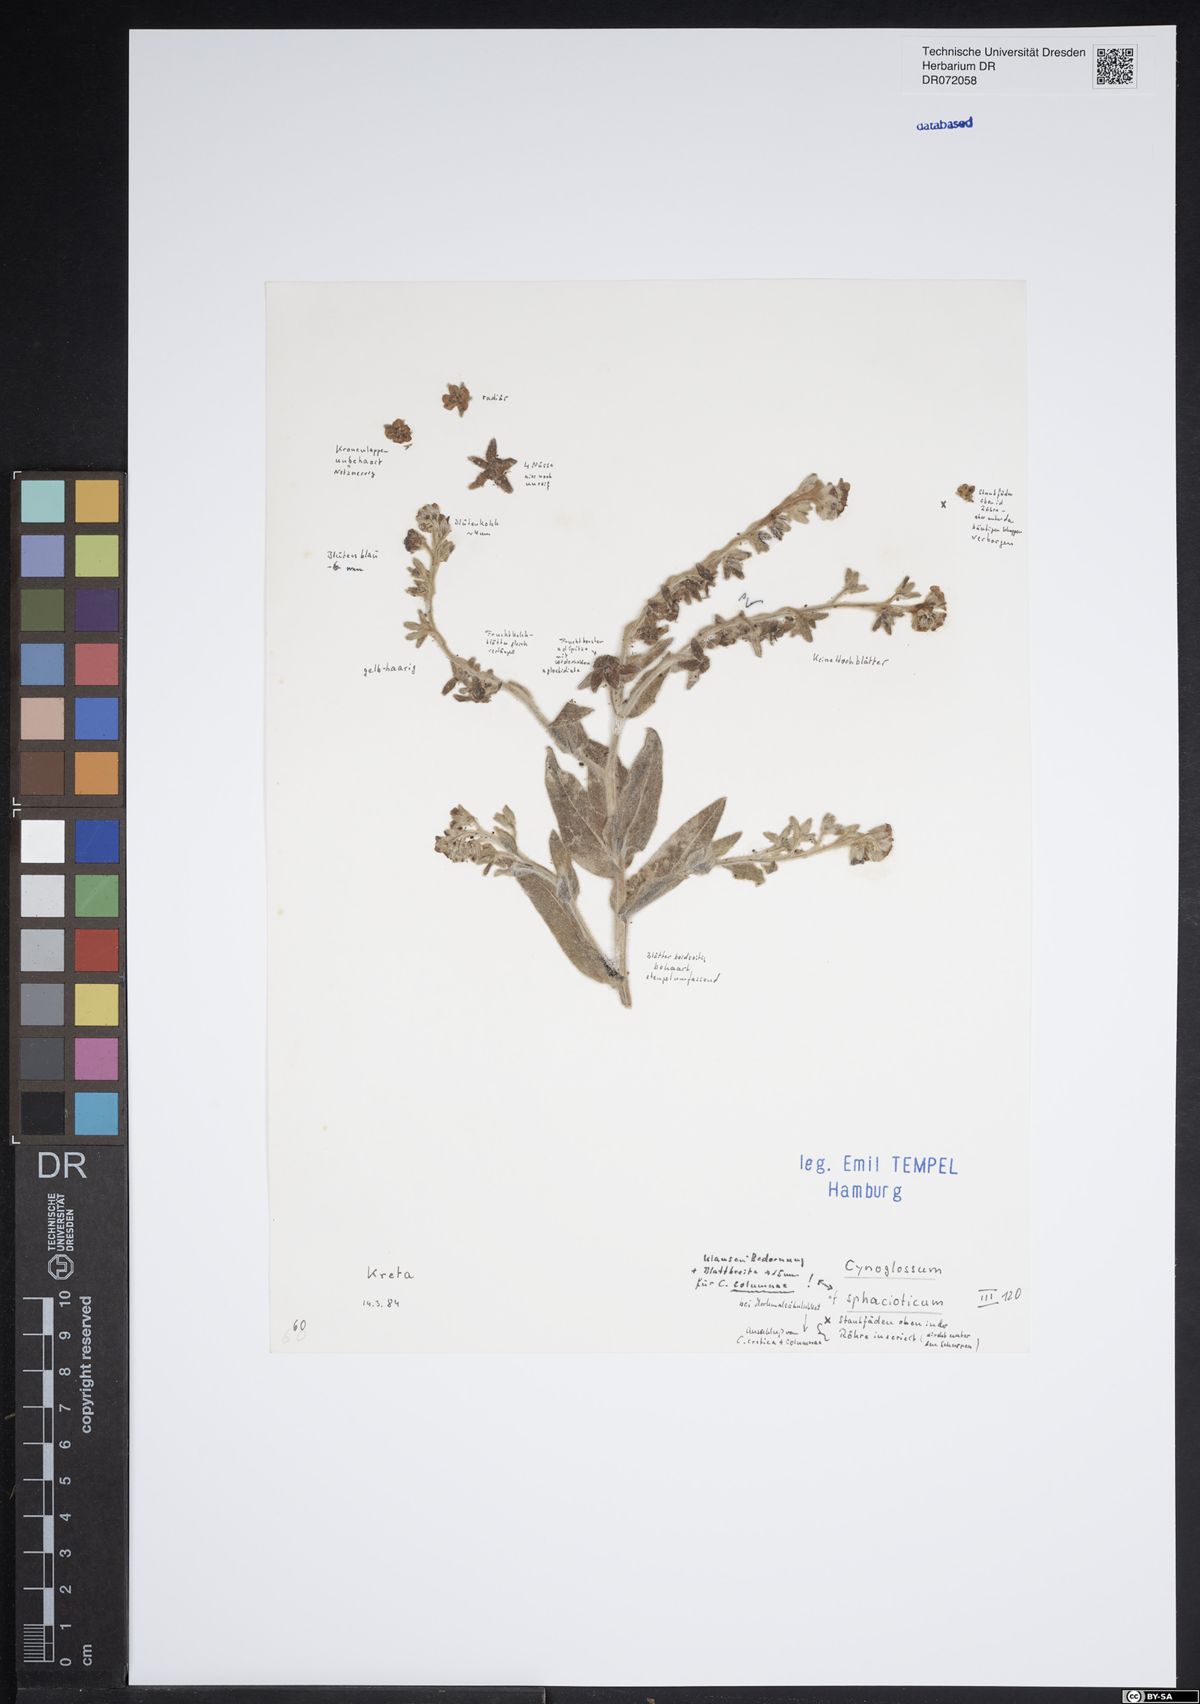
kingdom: Plantae
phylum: Tracheophyta
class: Magnoliopsida
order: Boraginales
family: Boraginaceae
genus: Cynoglossum
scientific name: Cynoglossum sphacioticum
